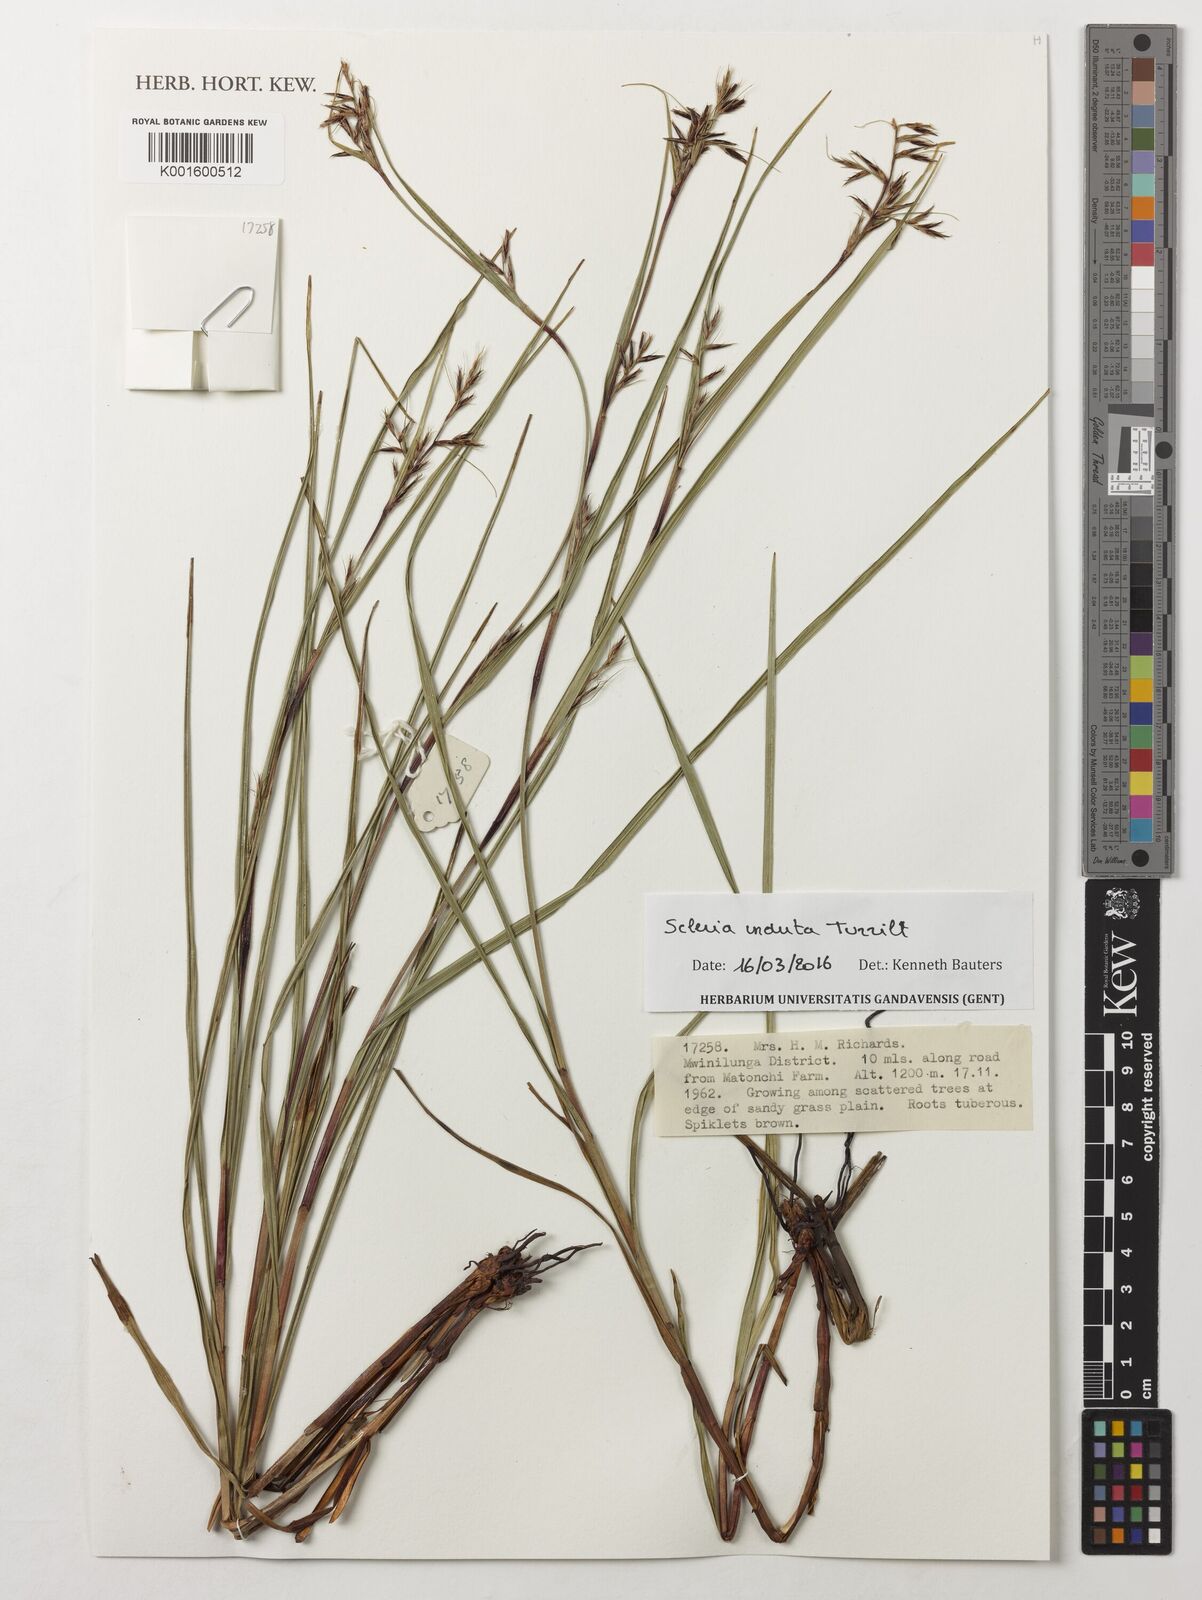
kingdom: Plantae
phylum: Tracheophyta
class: Liliopsida
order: Poales
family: Cyperaceae
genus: Scleria
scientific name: Scleria induta
